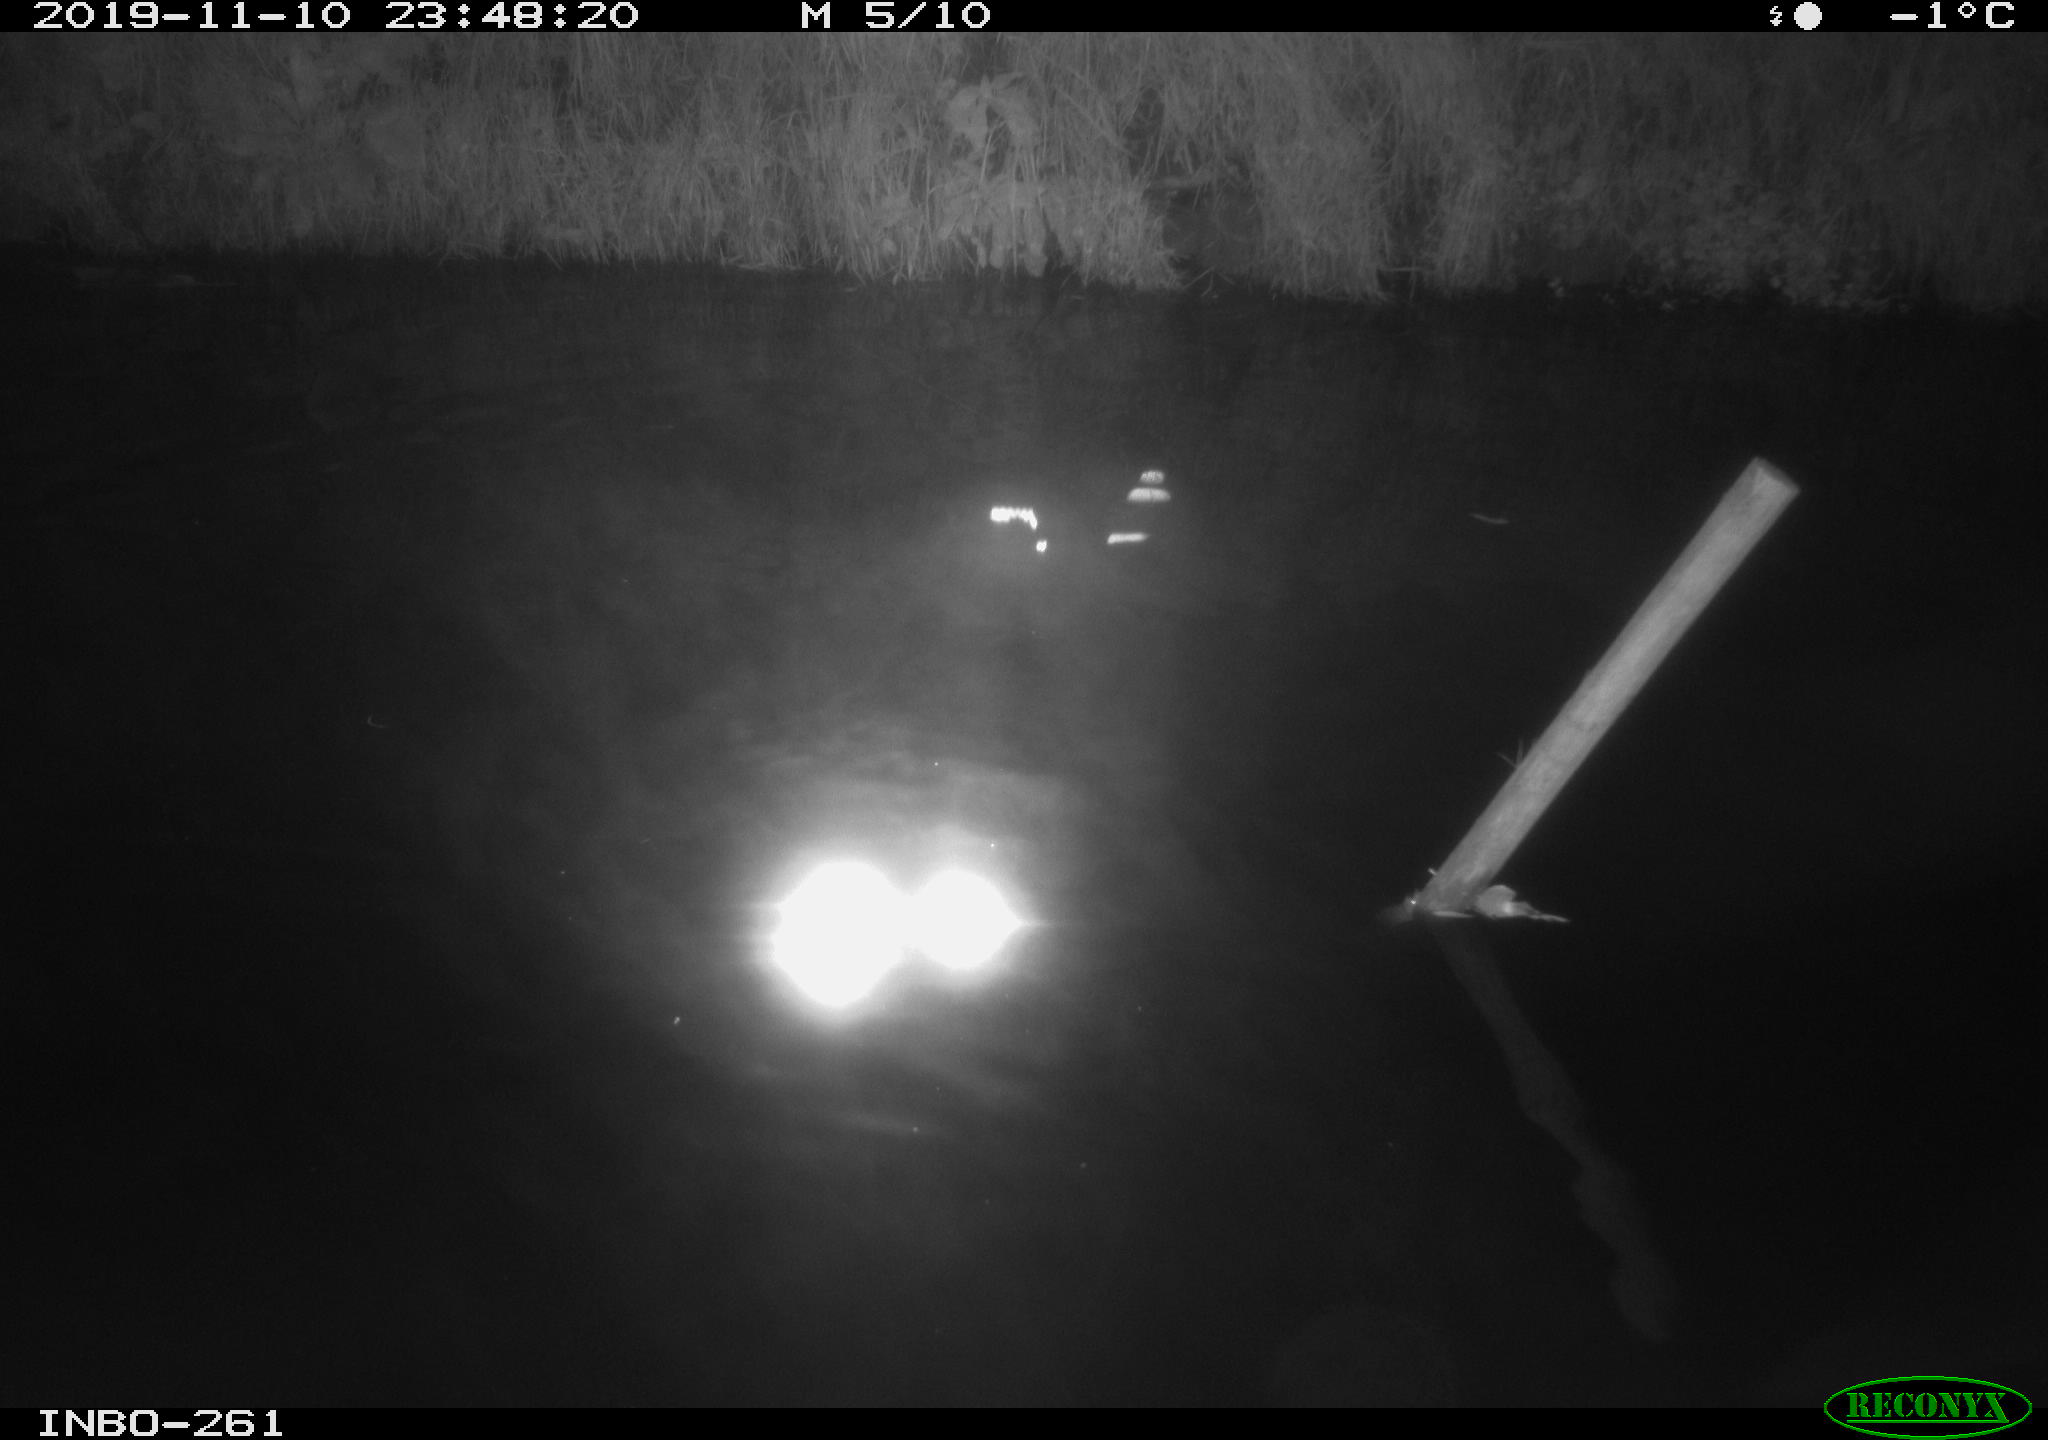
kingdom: Animalia
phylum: Chordata
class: Aves
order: Anseriformes
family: Anatidae
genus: Anas
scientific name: Anas platyrhynchos
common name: Mallard
